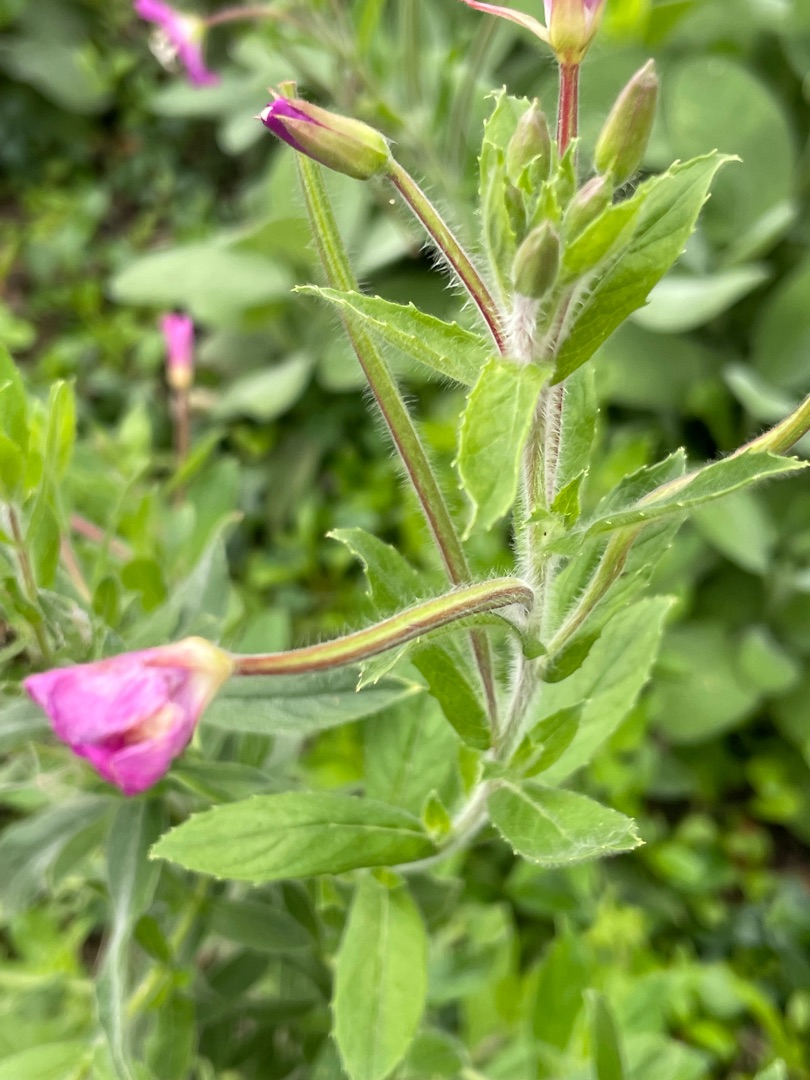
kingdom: Plantae
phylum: Tracheophyta
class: Magnoliopsida
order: Myrtales
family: Onagraceae
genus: Epilobium
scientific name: Epilobium hirsutum
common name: Lådden dueurt
